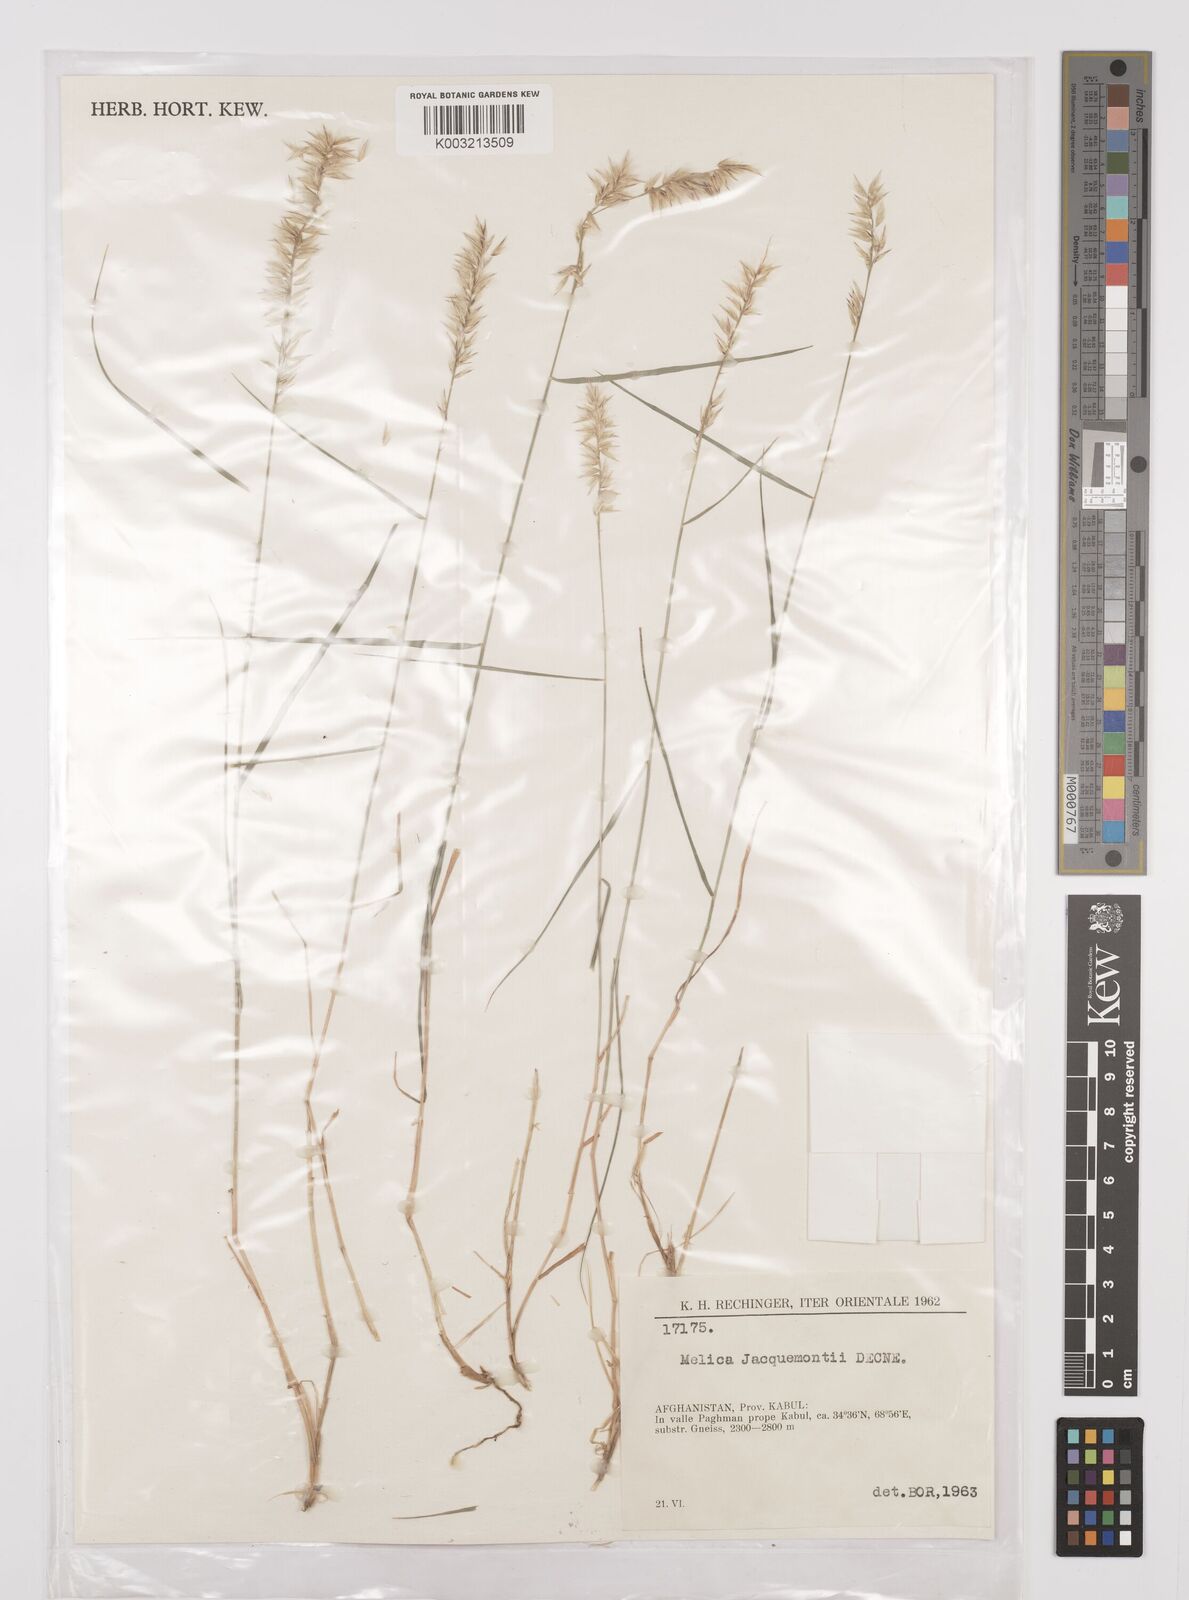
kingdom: Plantae
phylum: Tracheophyta
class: Liliopsida
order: Poales
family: Poaceae
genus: Melica
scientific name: Melica persica
